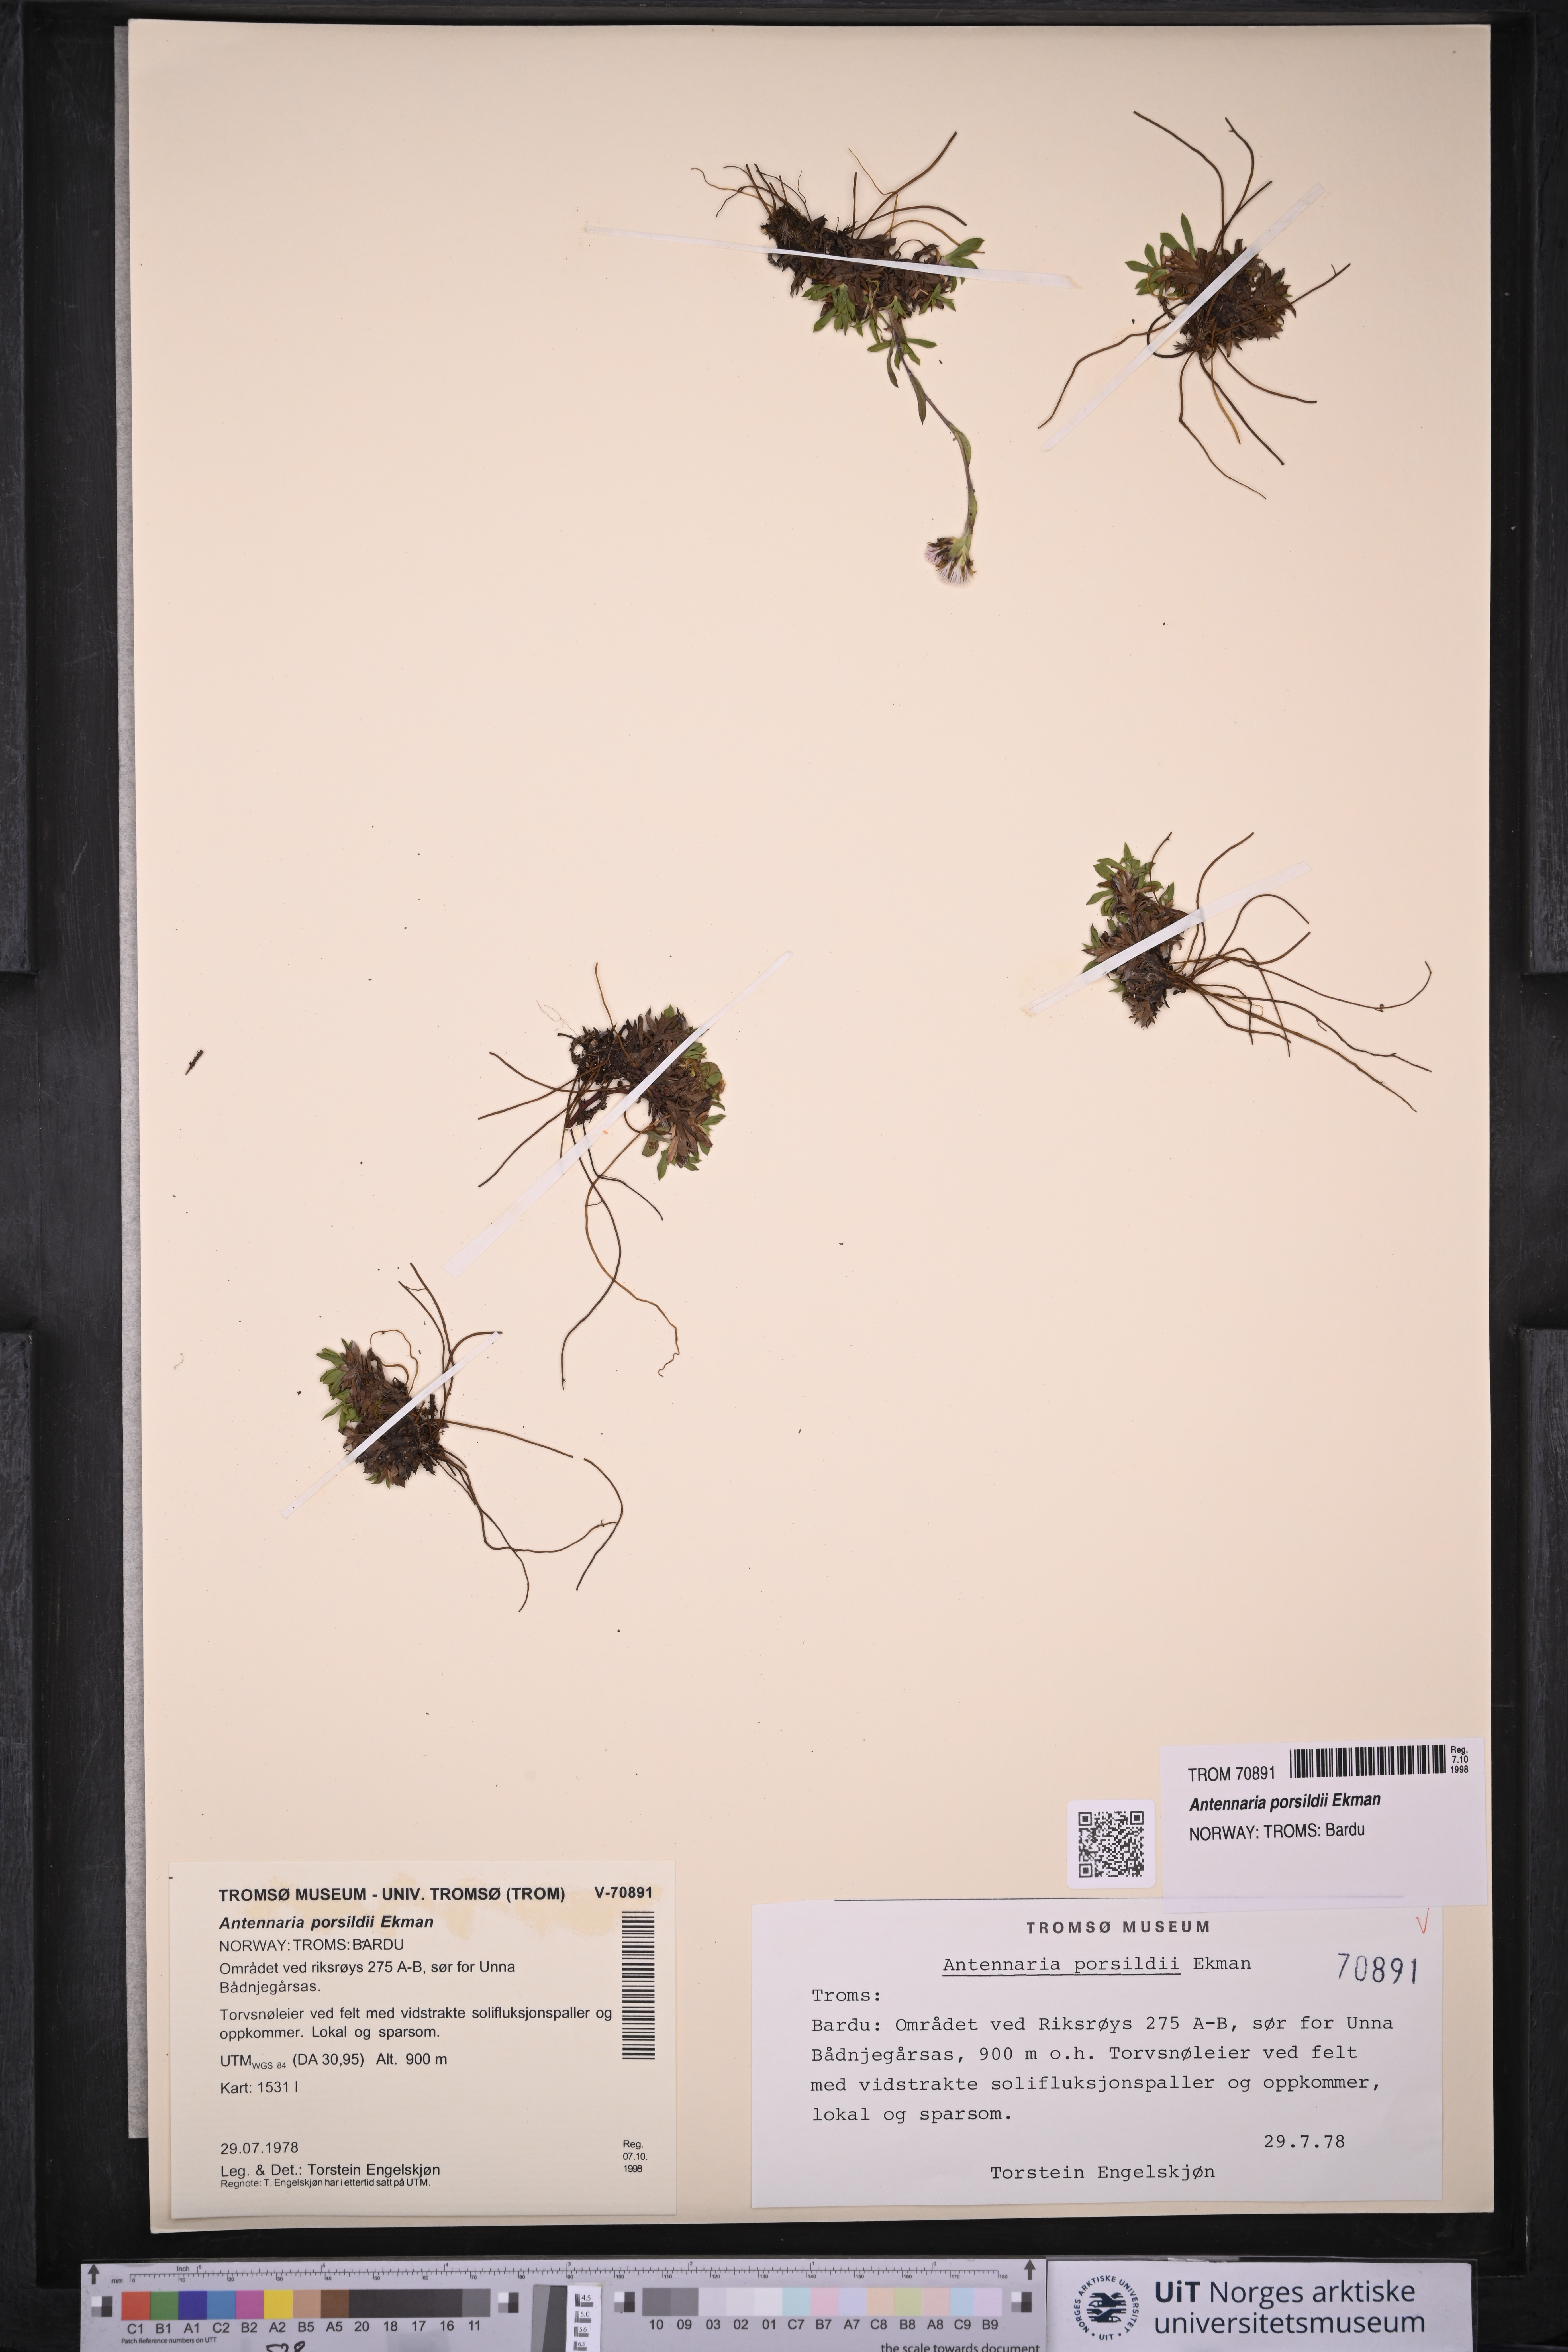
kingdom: Plantae
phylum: Tracheophyta
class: Magnoliopsida
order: Asterales
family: Asteraceae
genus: Antennaria
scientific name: Antennaria porsildii
